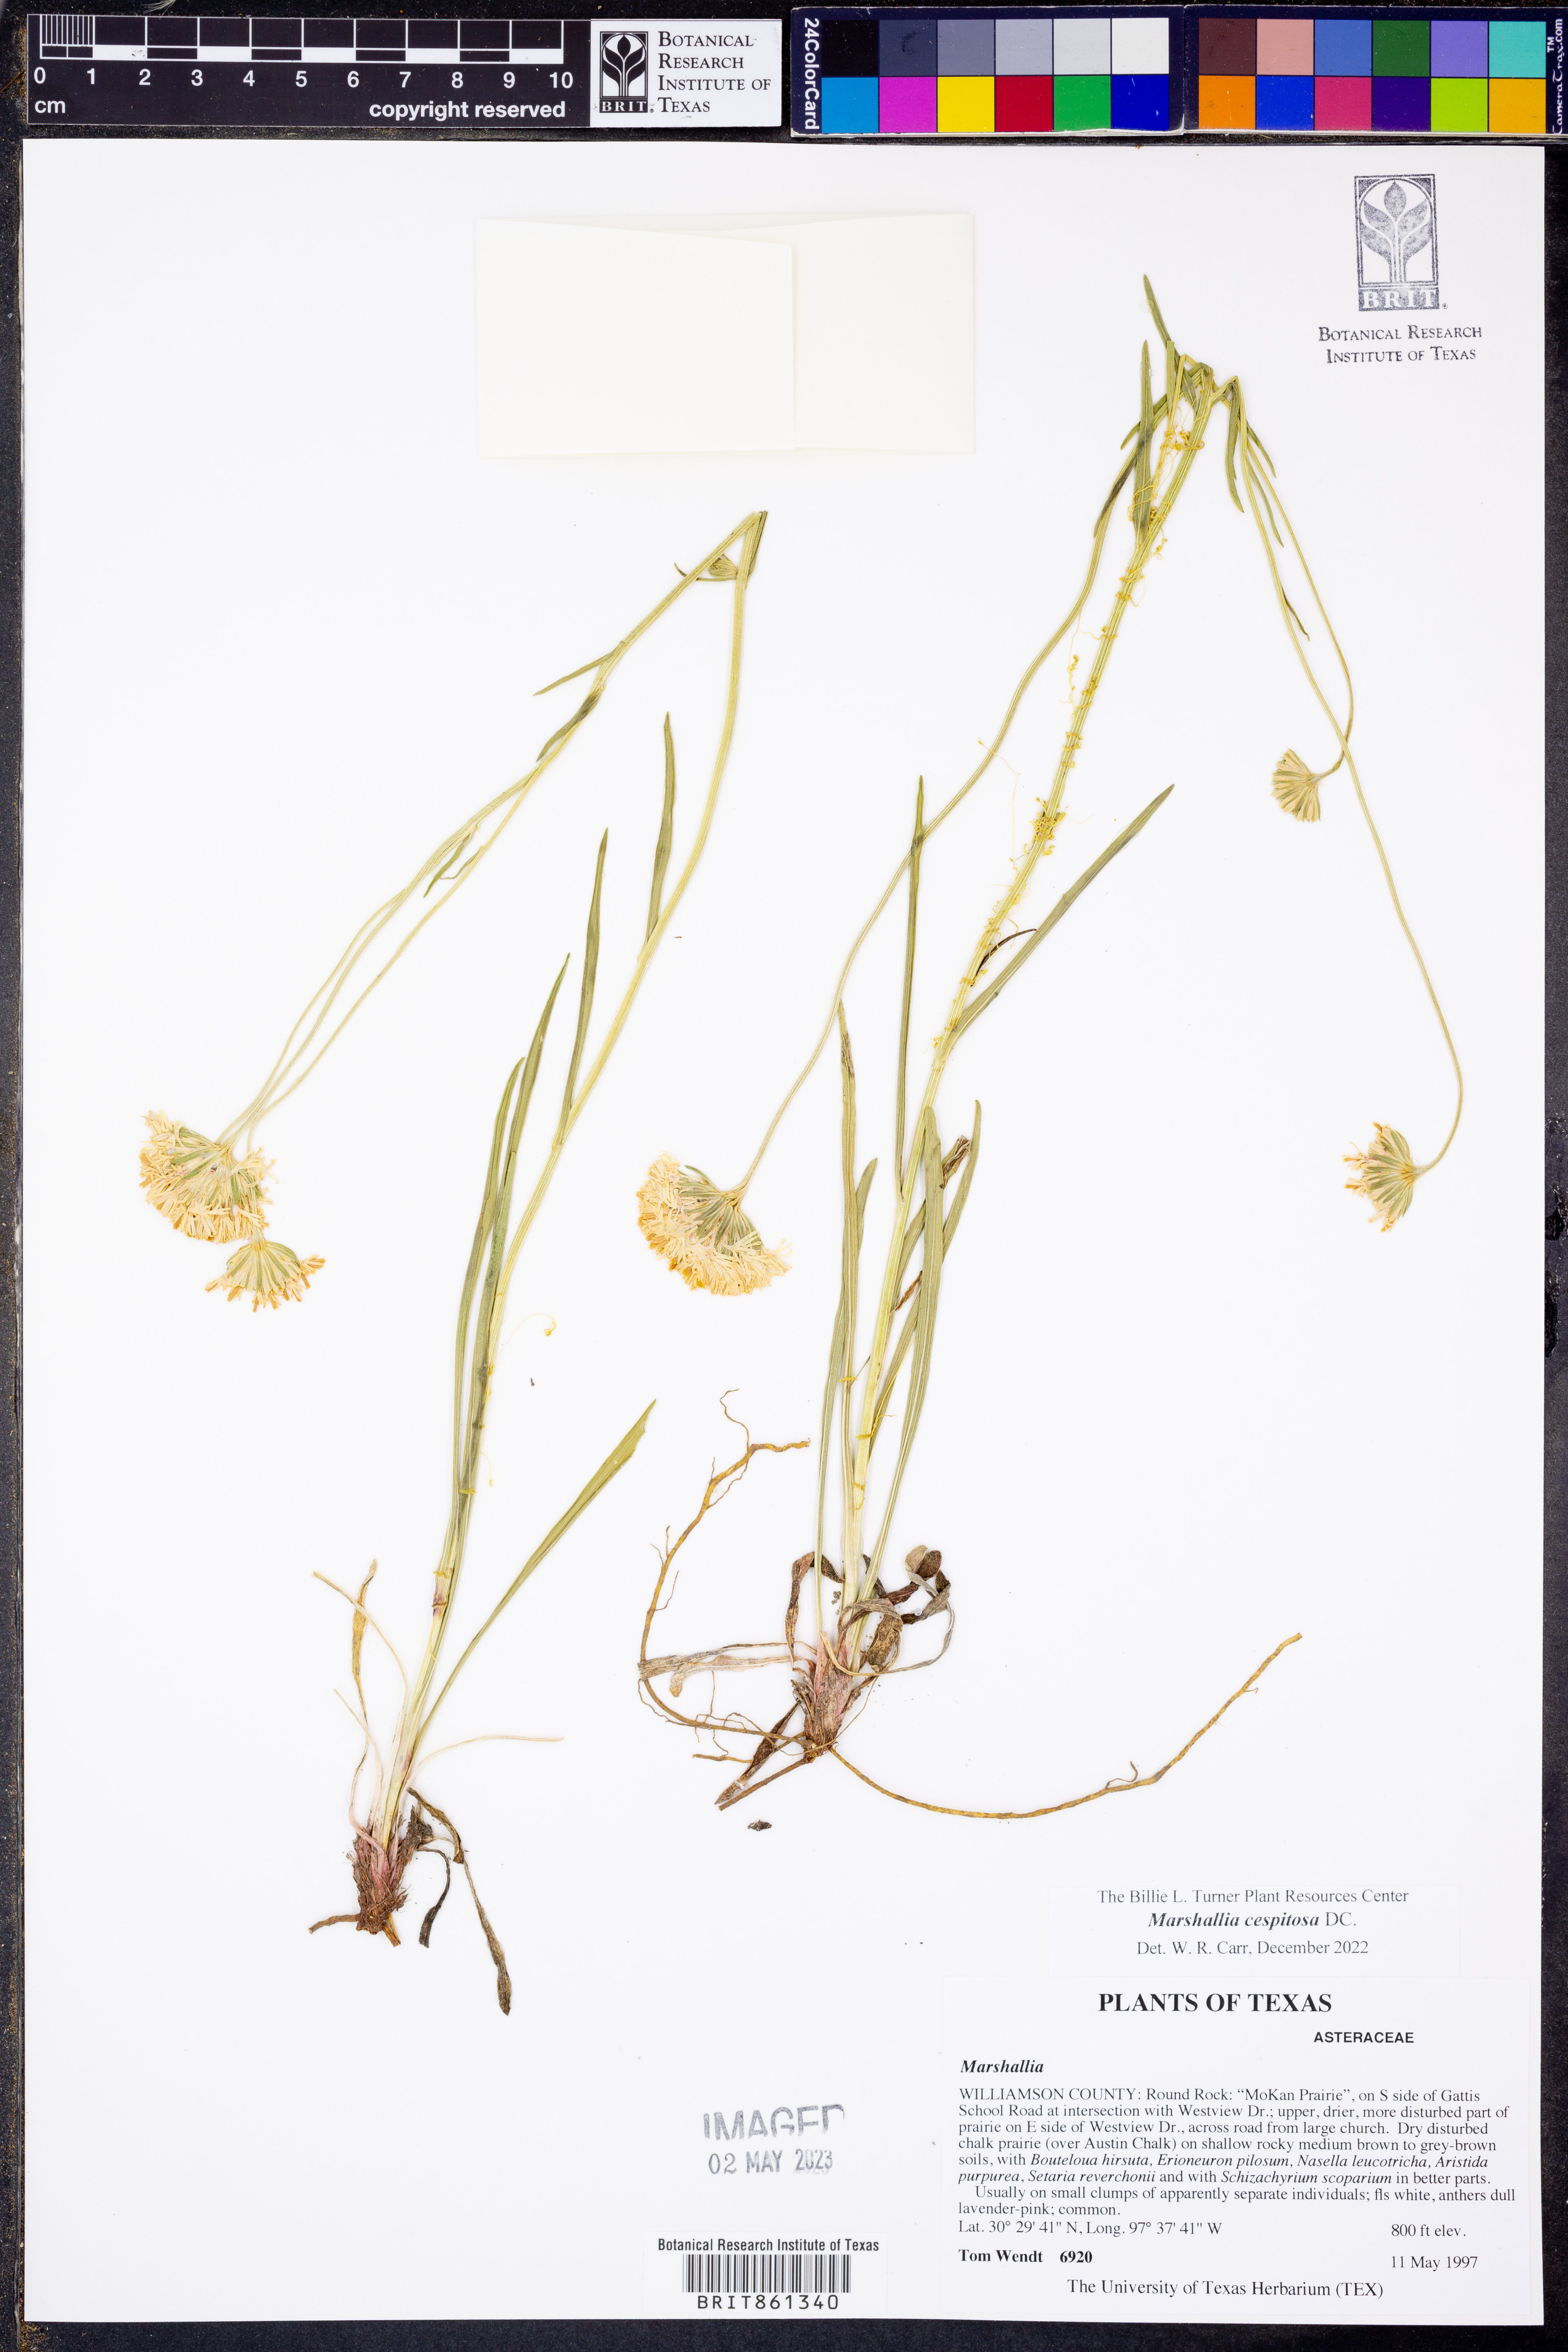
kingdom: Plantae
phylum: Tracheophyta
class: Magnoliopsida
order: Asterales
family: Asteraceae
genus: Marshallia
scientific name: Marshallia caespitosa
